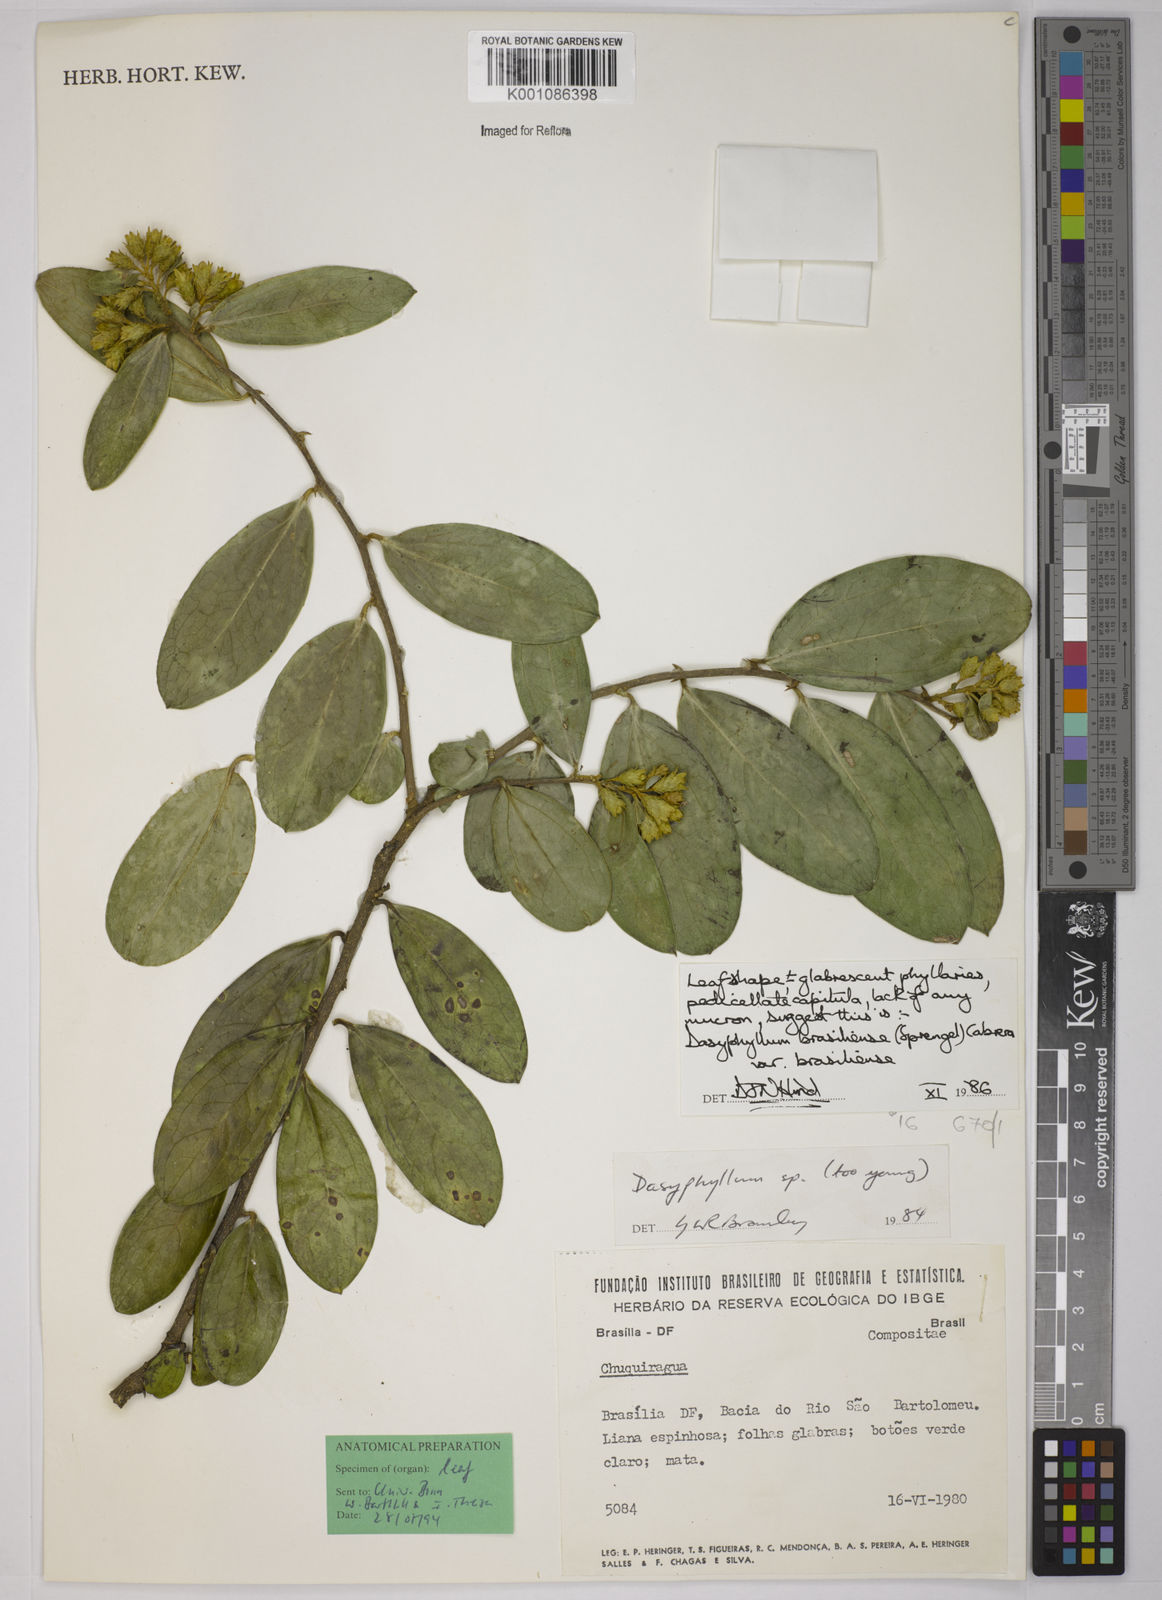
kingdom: Plantae
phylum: Tracheophyta
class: Magnoliopsida
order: Asterales
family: Asteraceae
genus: Dasyphyllum
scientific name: Dasyphyllum brasiliense
